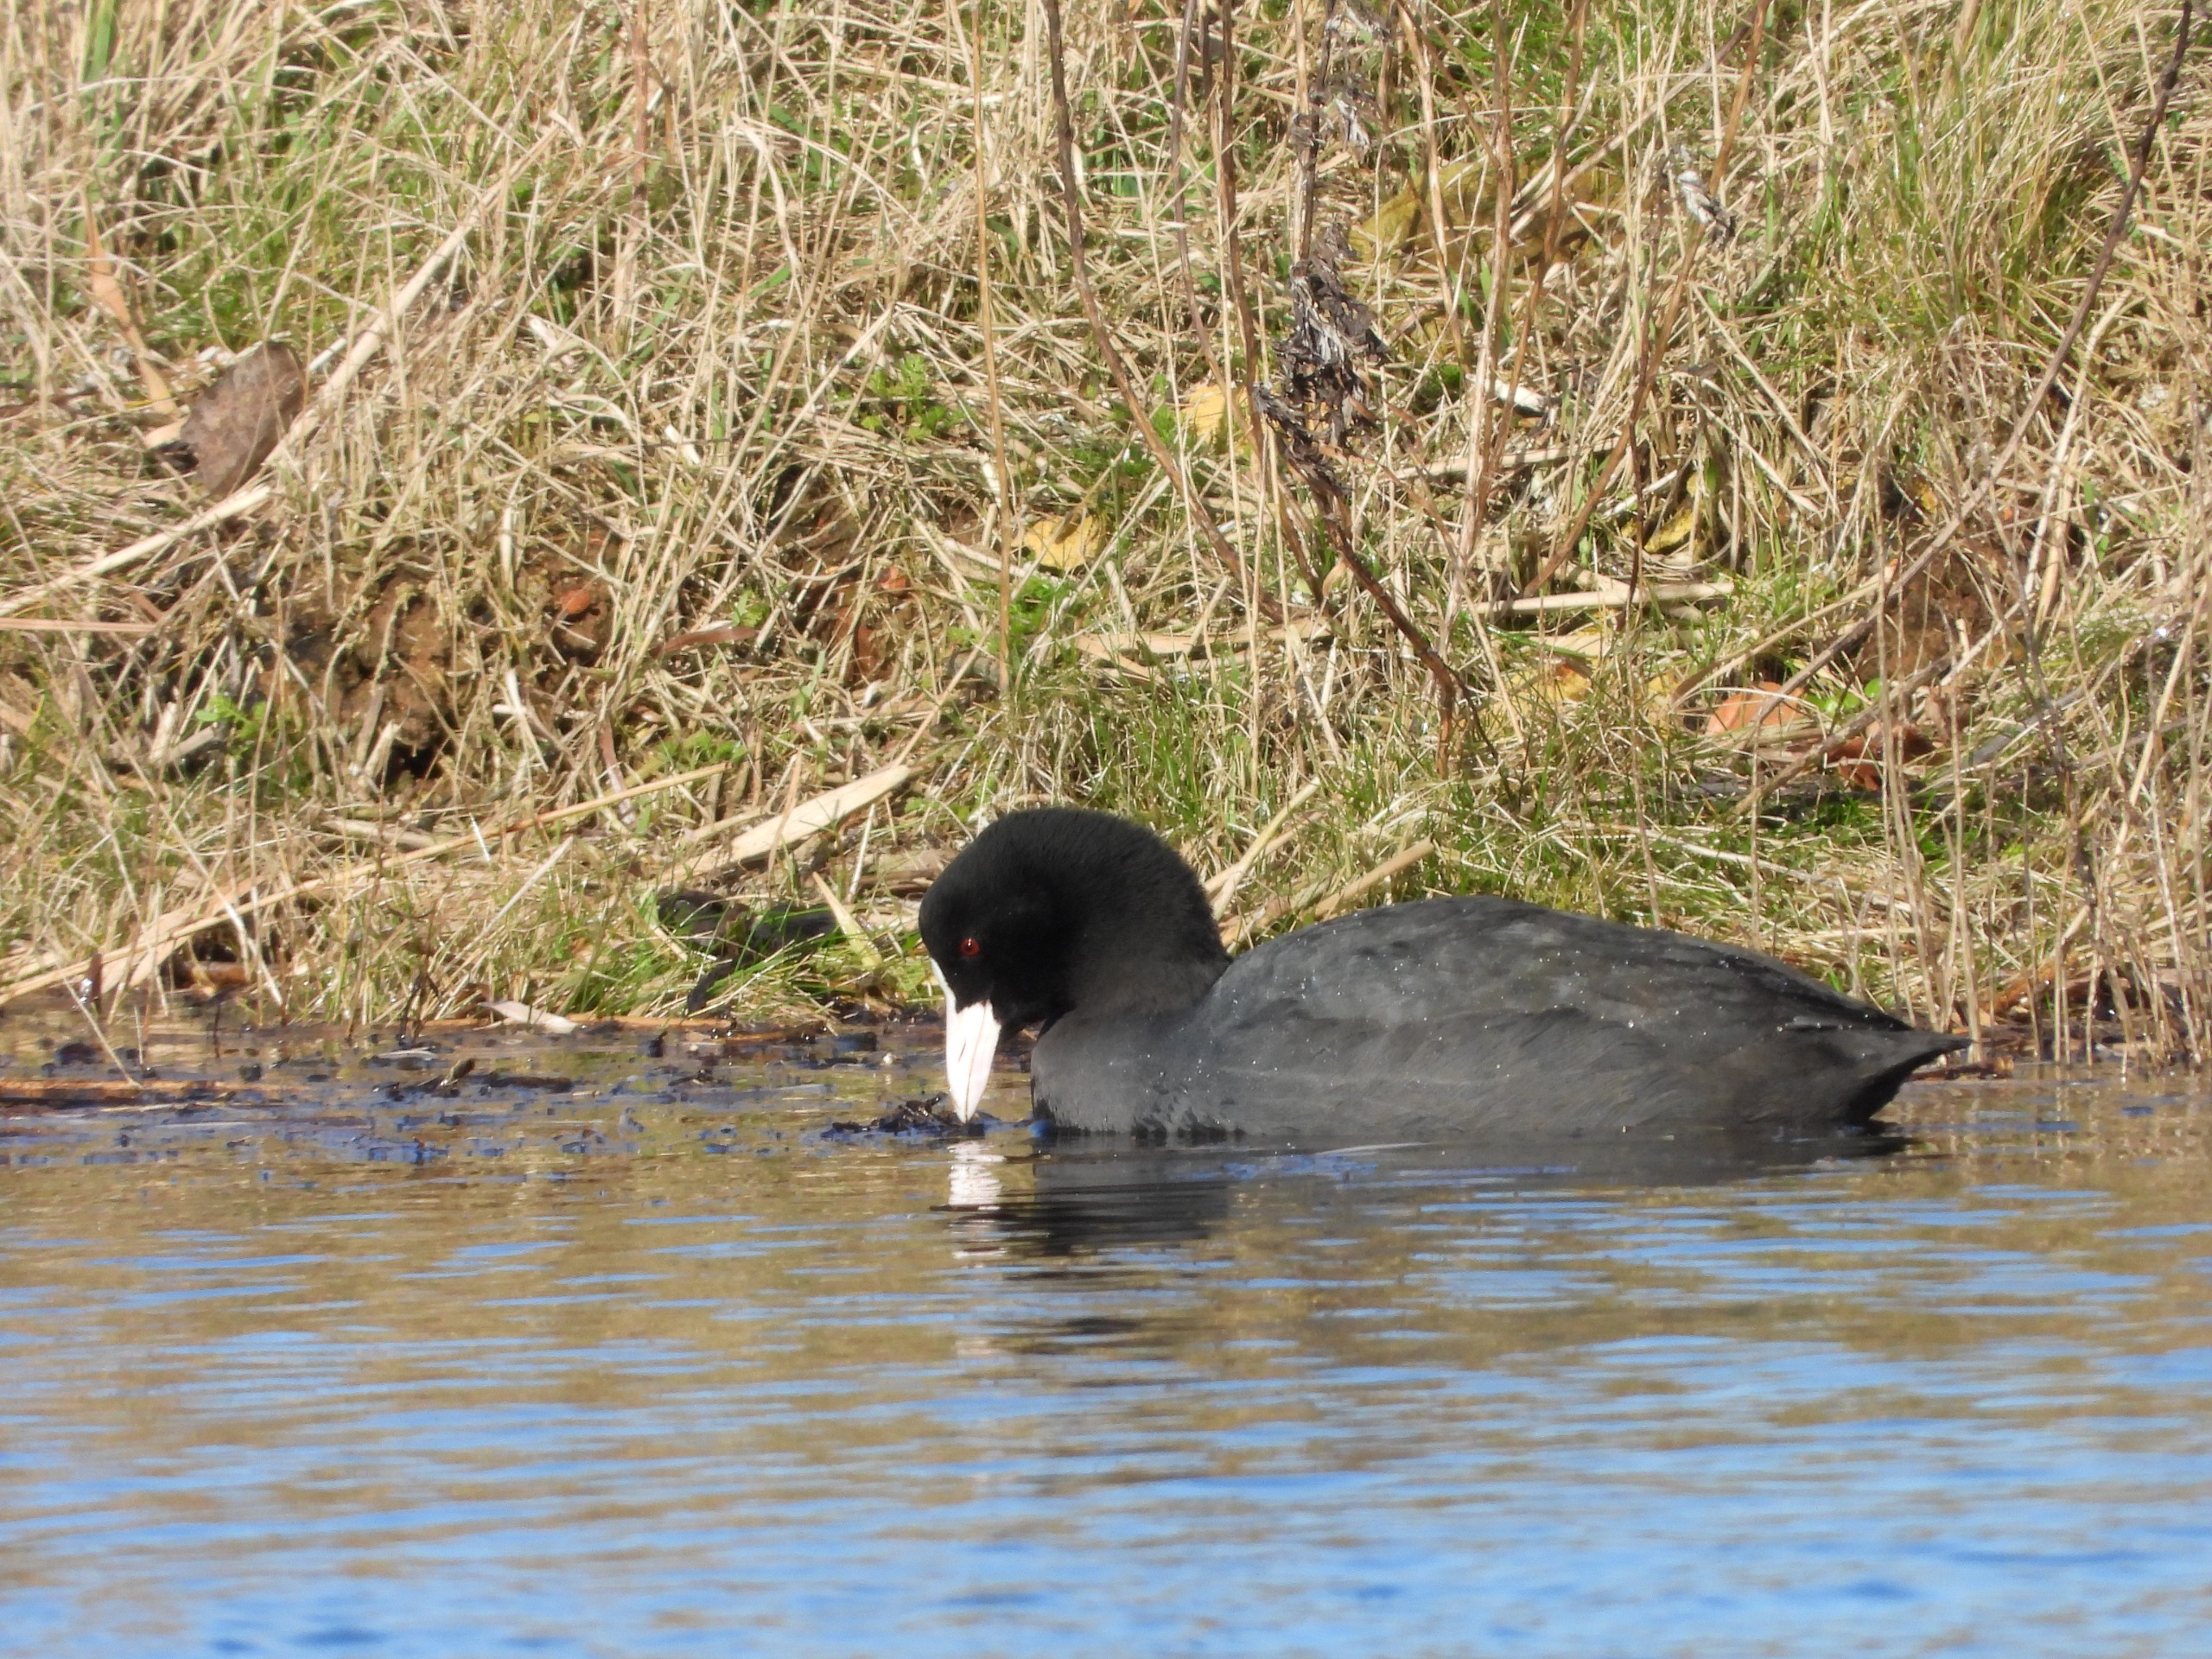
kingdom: Animalia
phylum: Chordata
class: Aves
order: Gruiformes
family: Rallidae
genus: Fulica
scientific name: Fulica atra
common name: Blishøne
